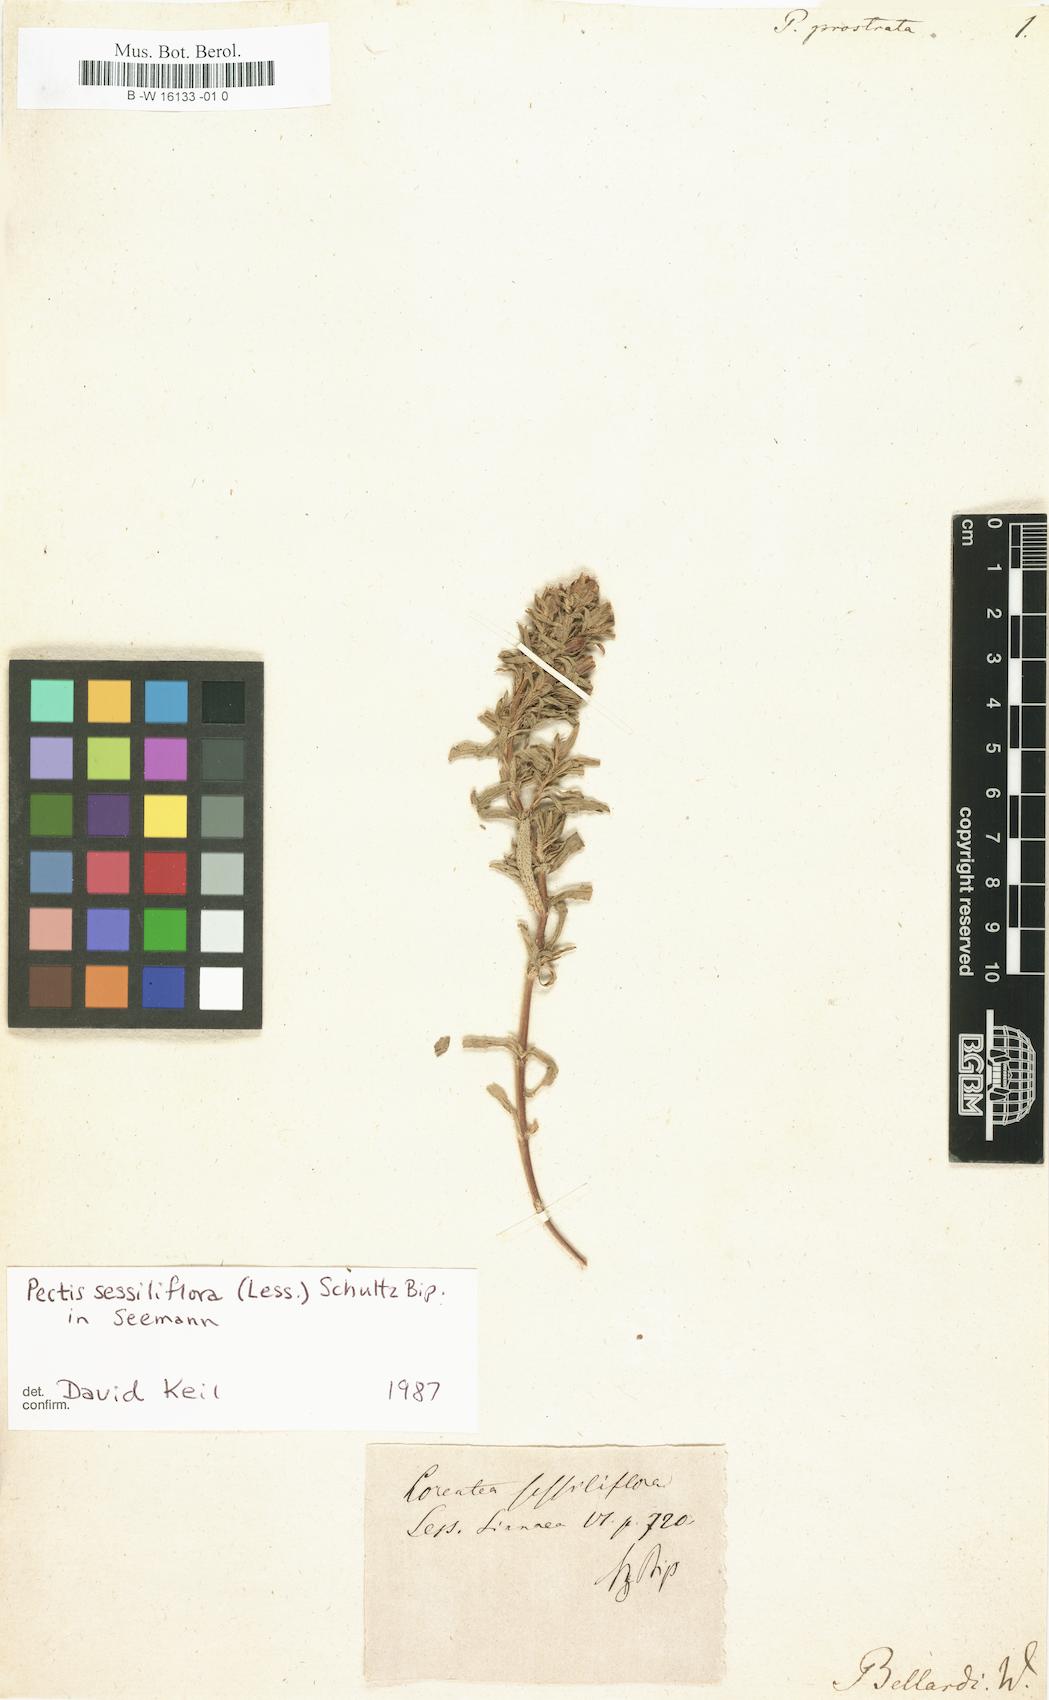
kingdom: Plantae
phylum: Tracheophyta
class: Magnoliopsida
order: Asterales
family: Asteraceae
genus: Pectis
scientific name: Pectis prostrata
